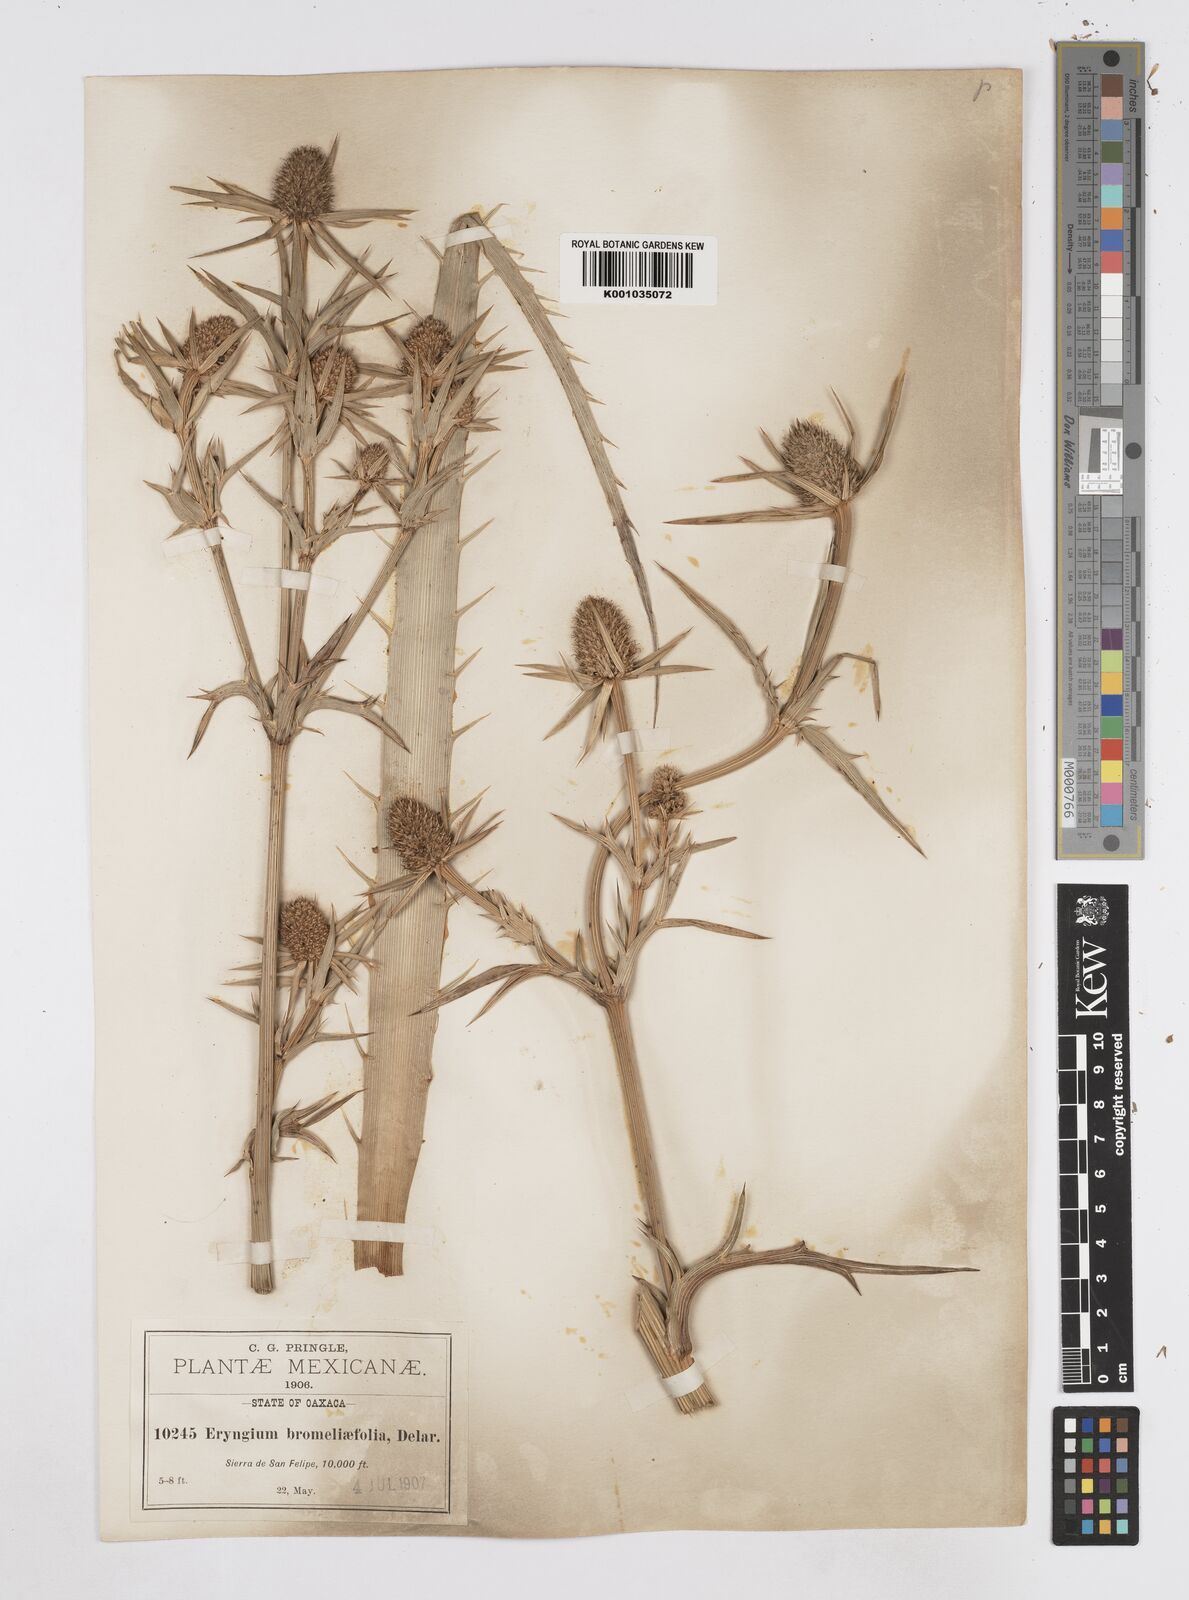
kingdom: Plantae
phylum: Tracheophyta
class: Magnoliopsida
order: Apiales
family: Apiaceae
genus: Eryngium
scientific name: Eryngium monocephalum
